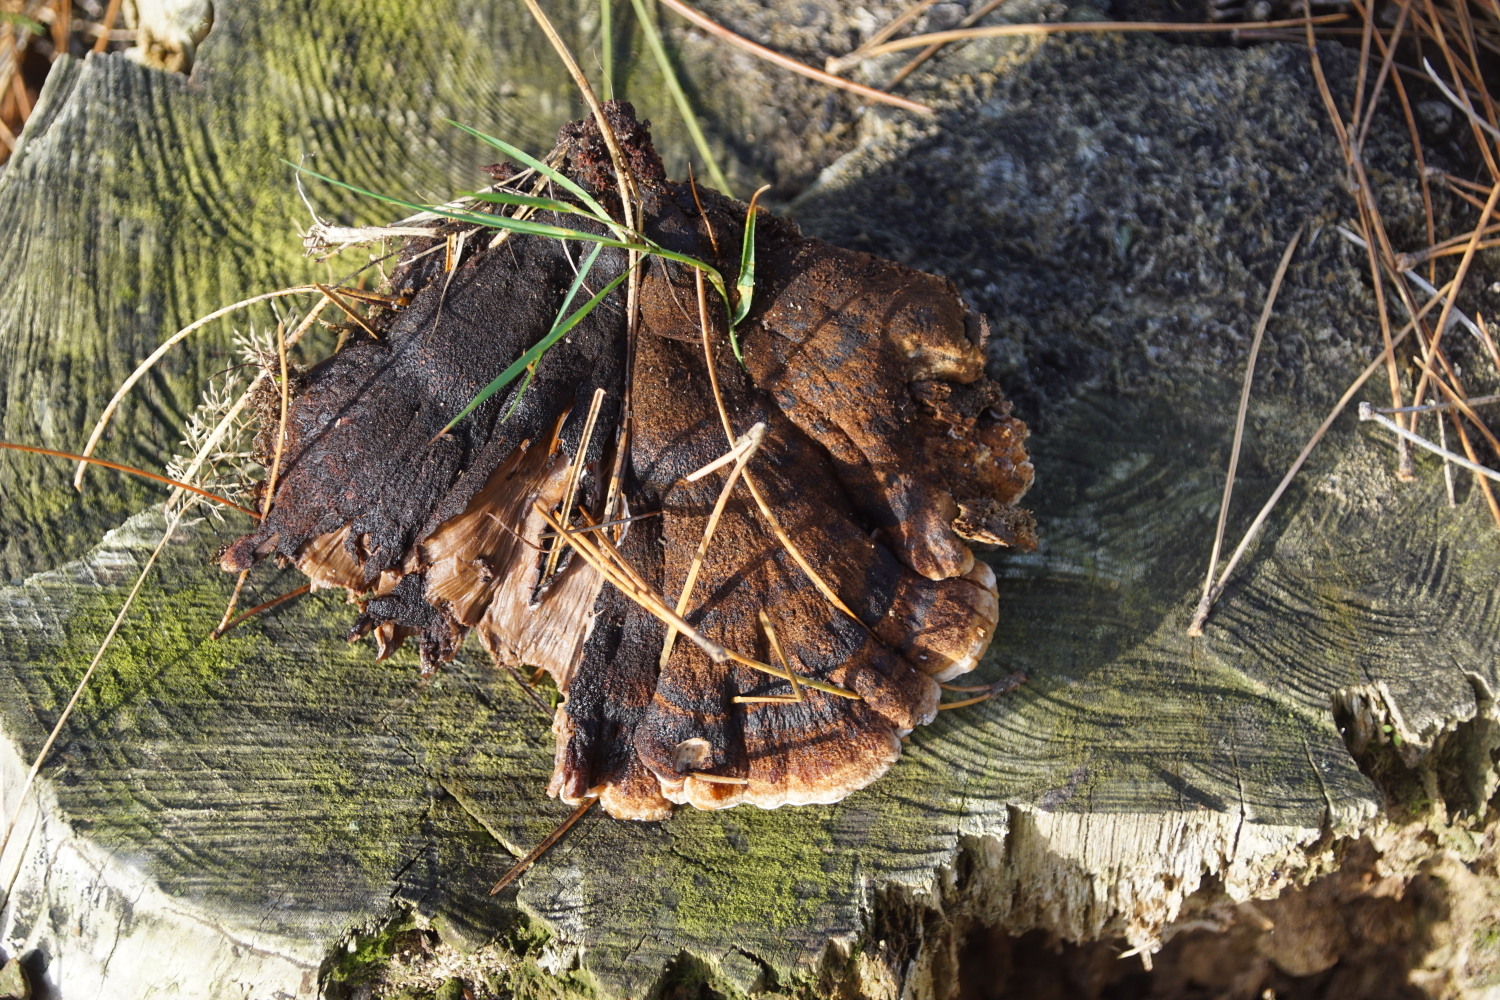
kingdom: Fungi
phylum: Basidiomycota
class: Agaricomycetes
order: Polyporales
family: Ischnodermataceae
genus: Ischnoderma
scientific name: Ischnoderma benzoinum
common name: gran-tjæreporesvamp
